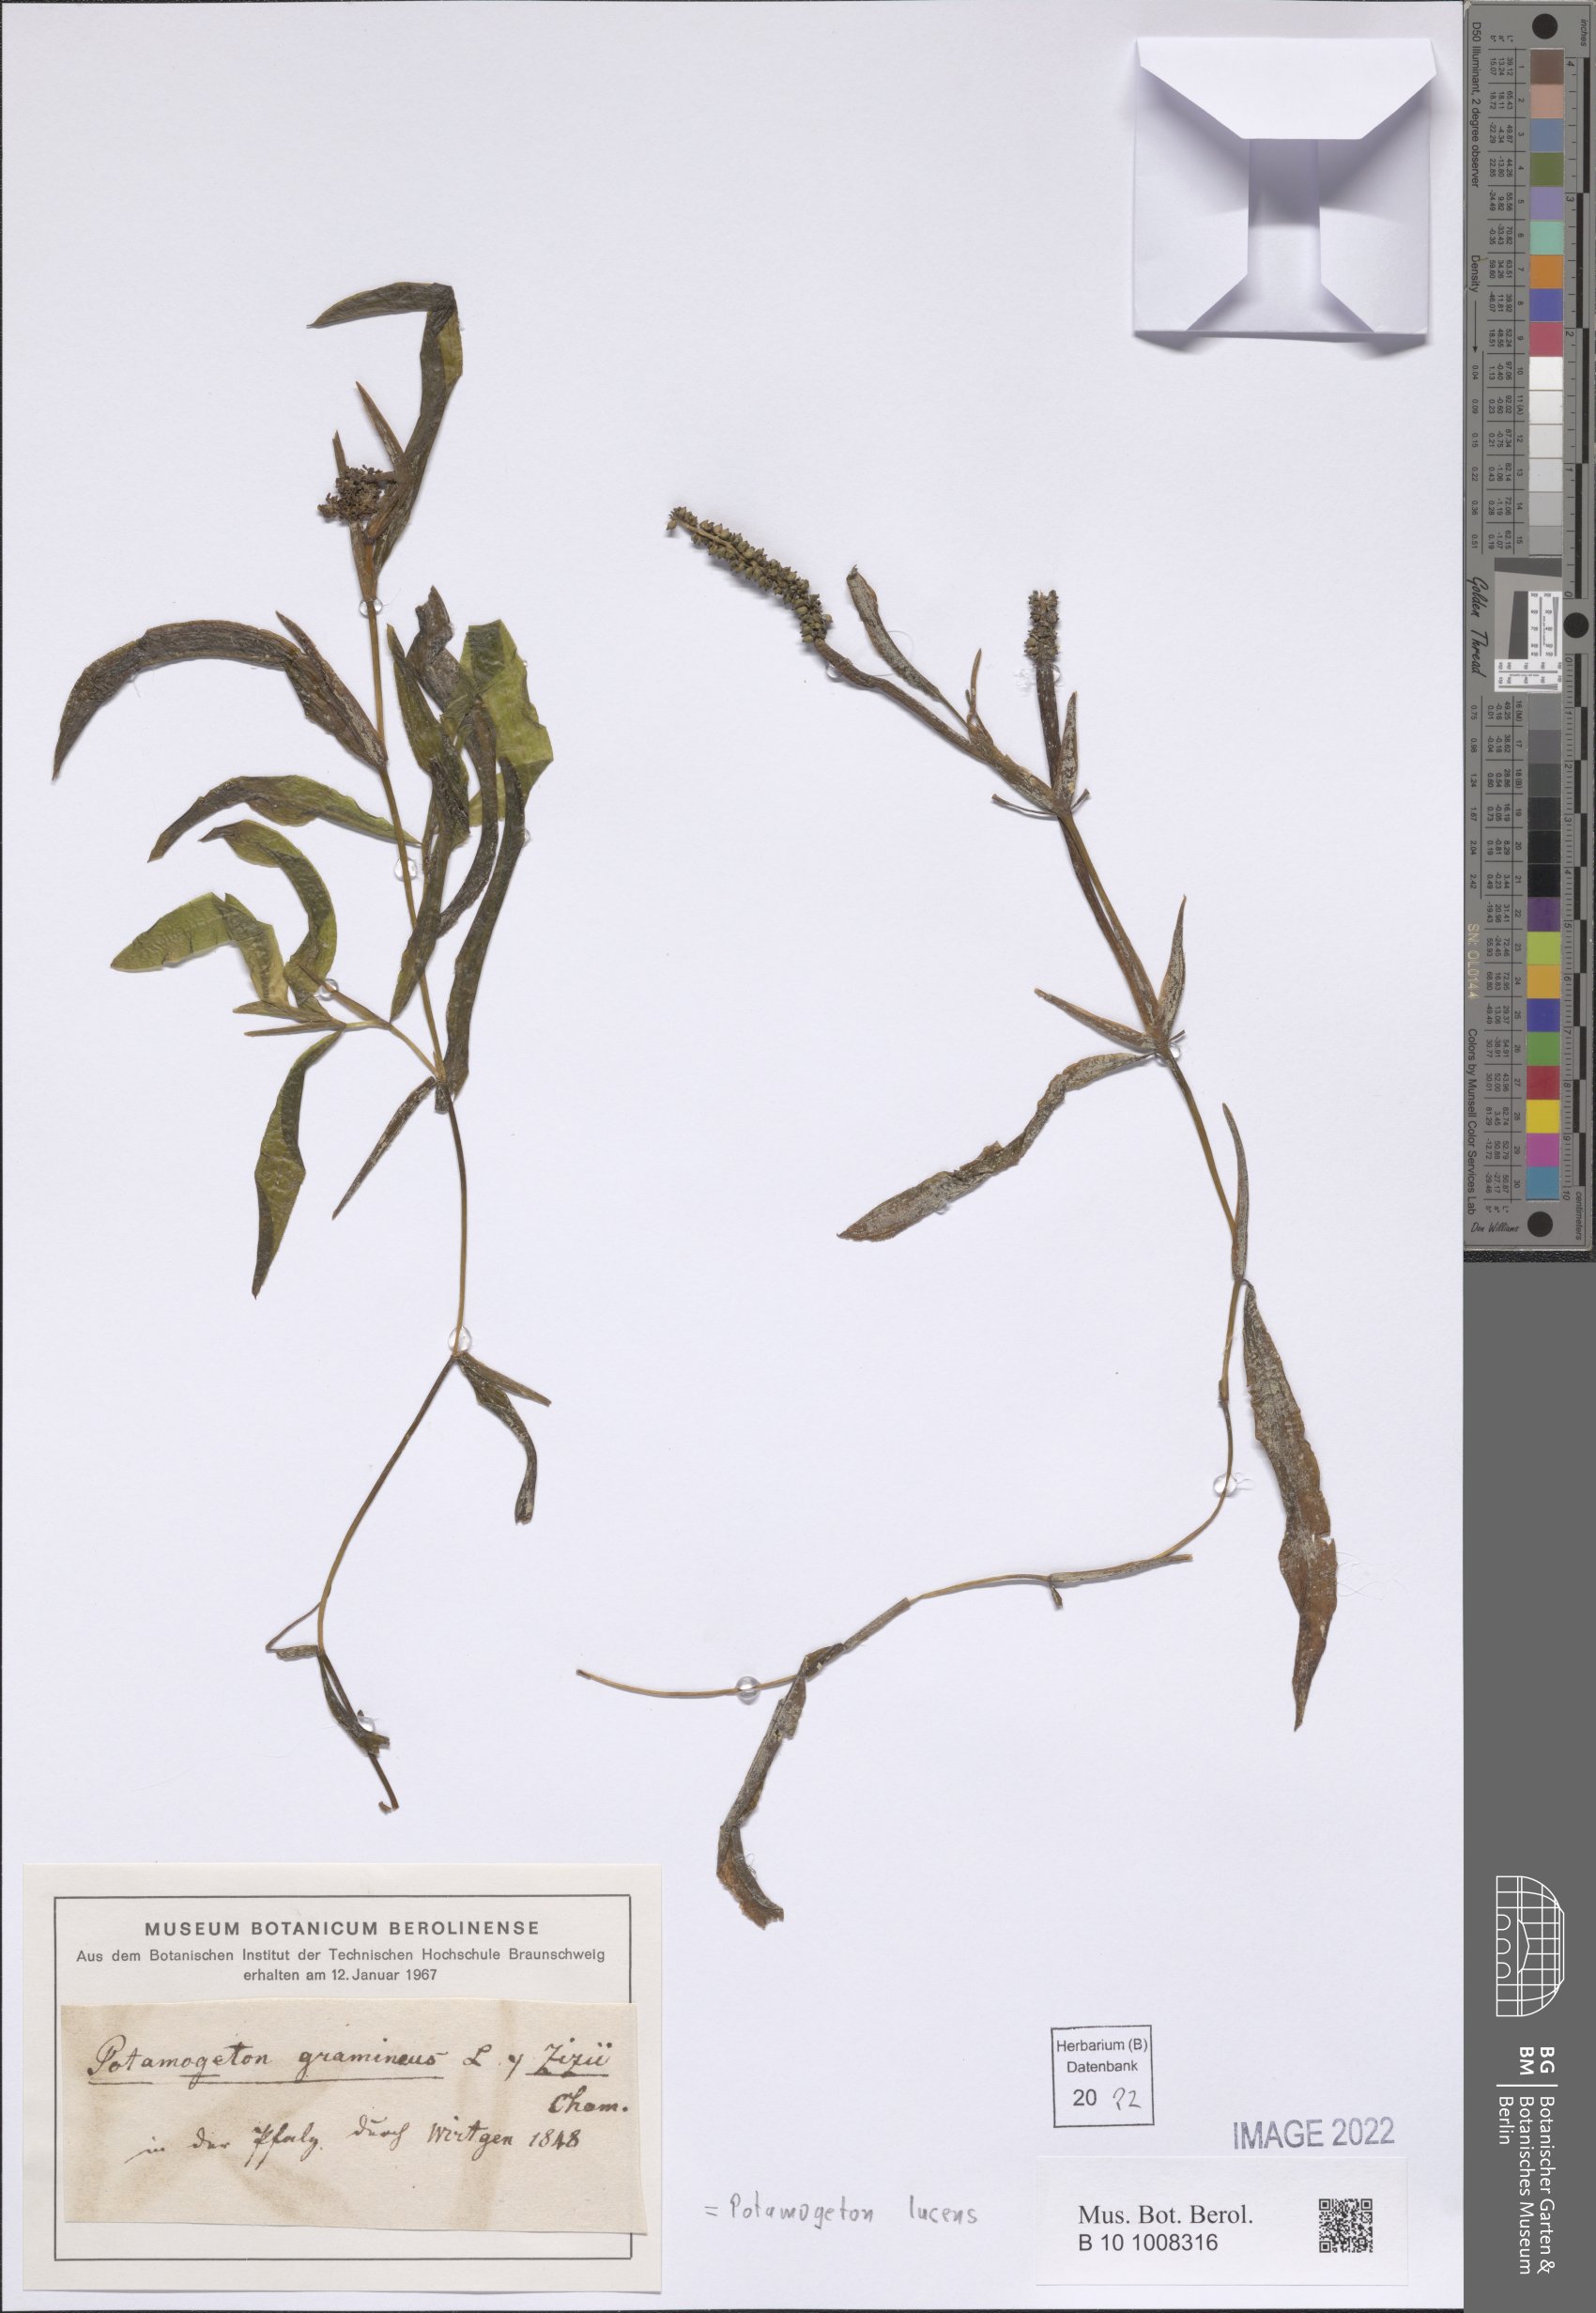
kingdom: Plantae
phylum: Tracheophyta
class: Liliopsida
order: Alismatales
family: Potamogetonaceae
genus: Potamogeton
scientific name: Potamogeton lucens
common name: Shining pondweed
